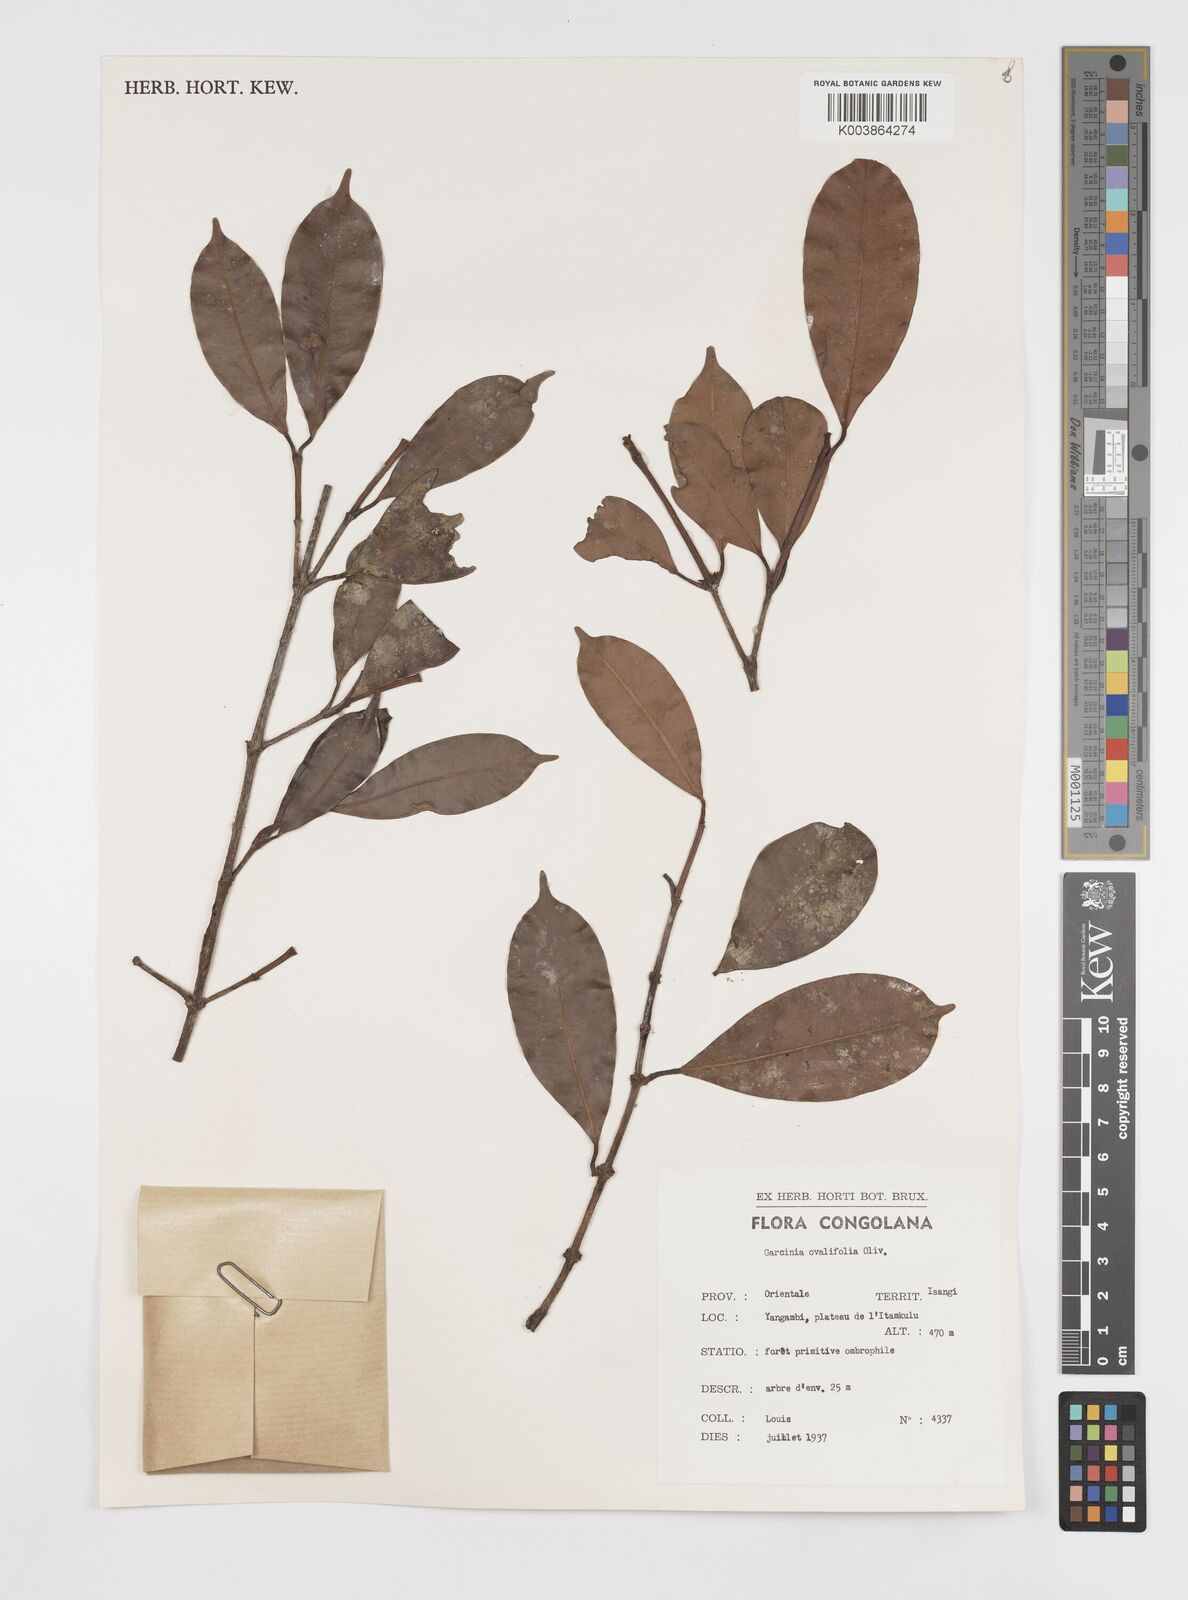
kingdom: Plantae
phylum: Tracheophyta
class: Magnoliopsida
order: Malpighiales
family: Clusiaceae
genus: Garcinia
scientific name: Garcinia ovalifolia
